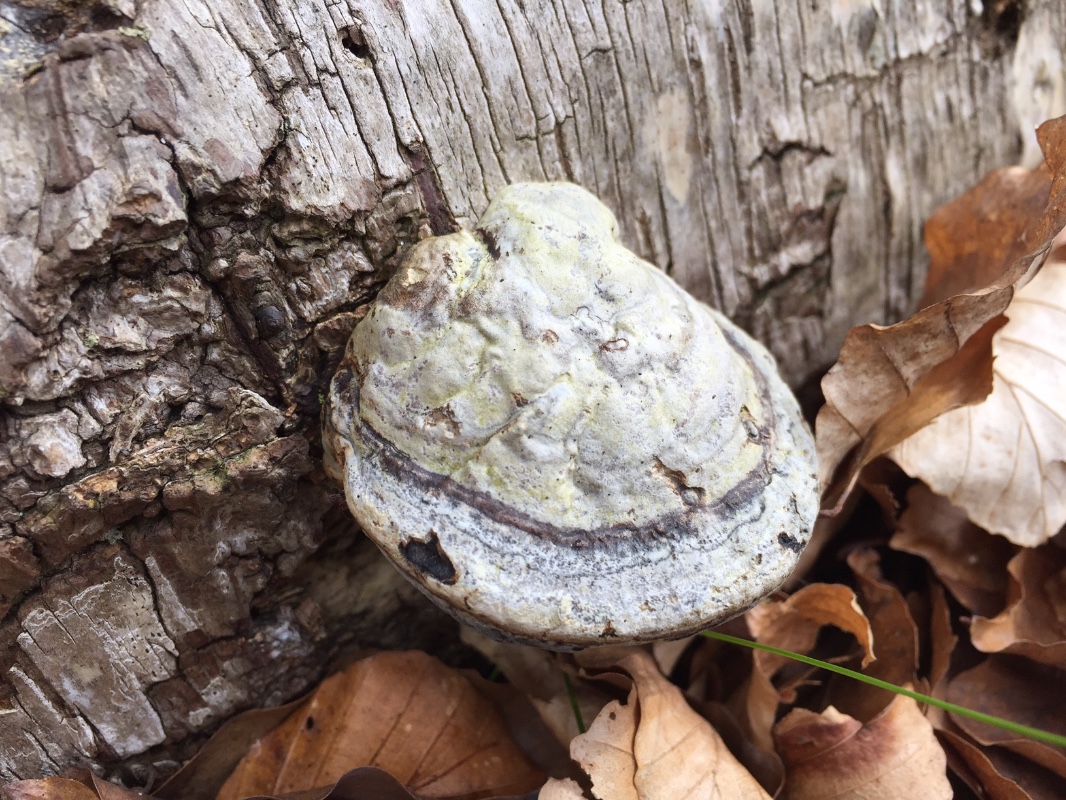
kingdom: Fungi
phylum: Basidiomycota
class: Agaricomycetes
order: Polyporales
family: Polyporaceae
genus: Fomes
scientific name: Fomes fomentarius
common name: tøndersvamp
